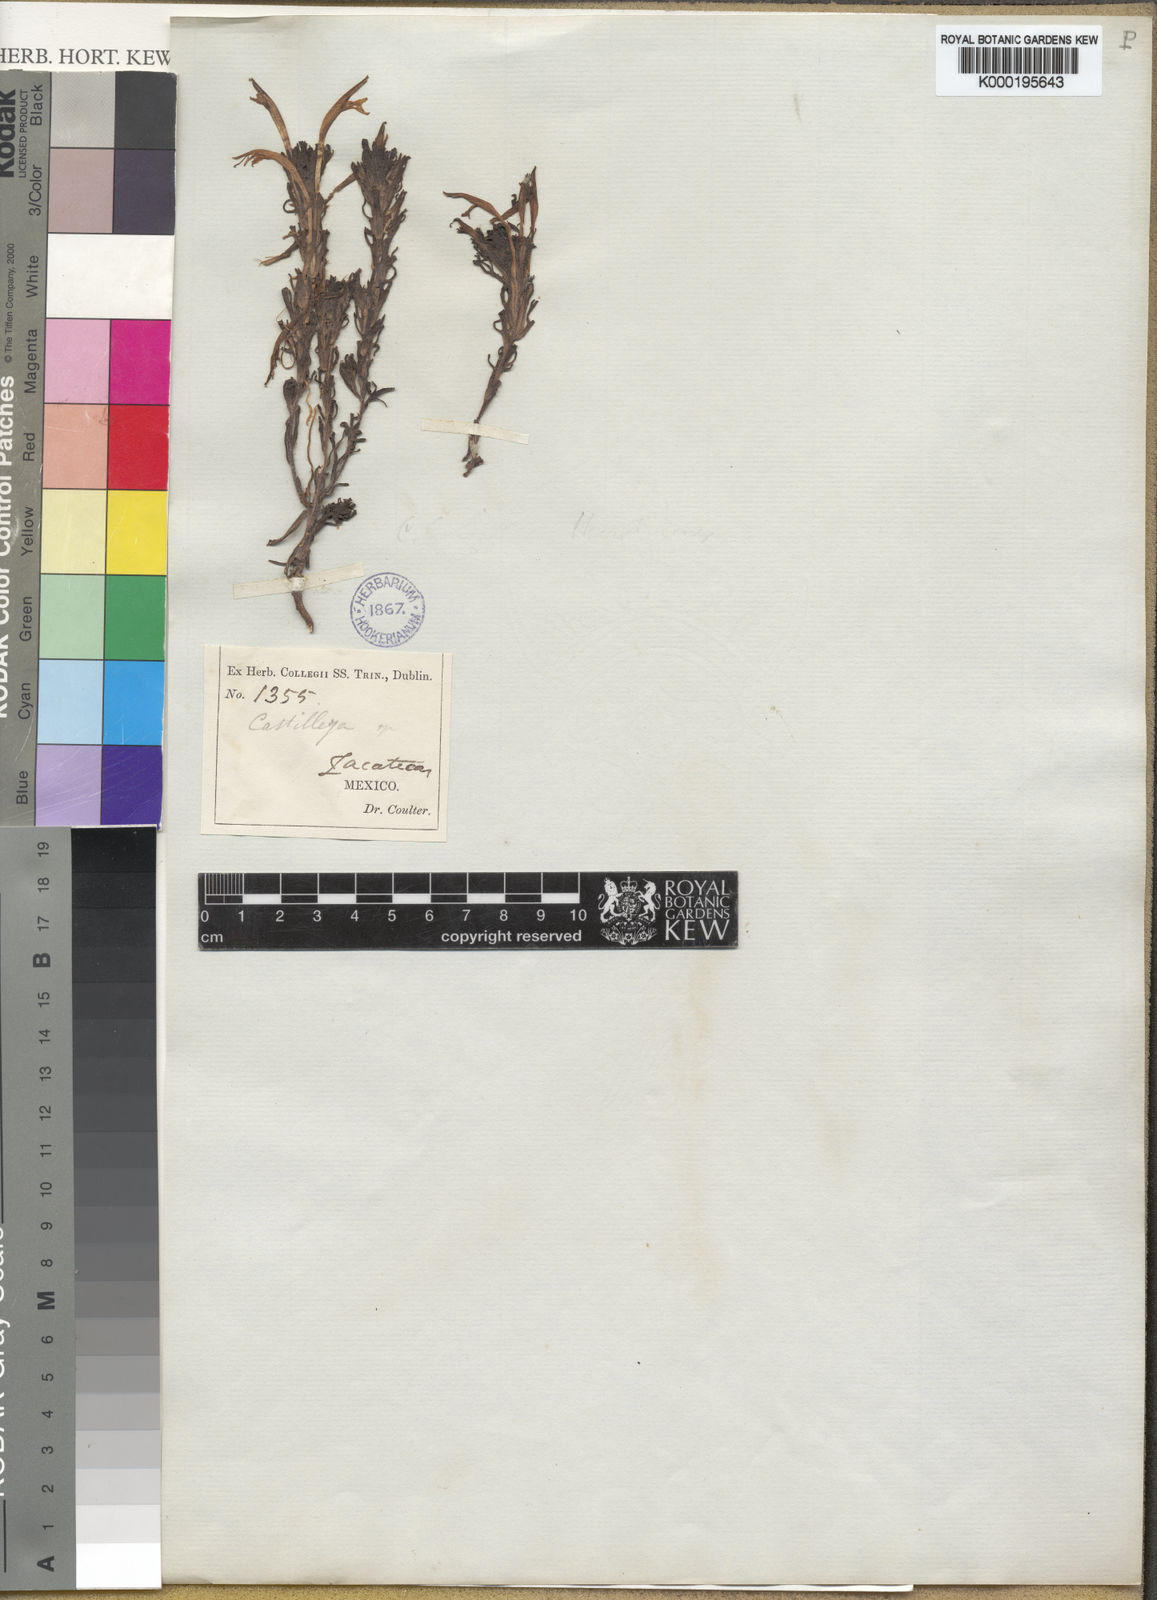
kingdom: Plantae
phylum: Tracheophyta
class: Magnoliopsida
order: Lamiales
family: Orobanchaceae
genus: Castilleja
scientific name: Castilleja mexicana
